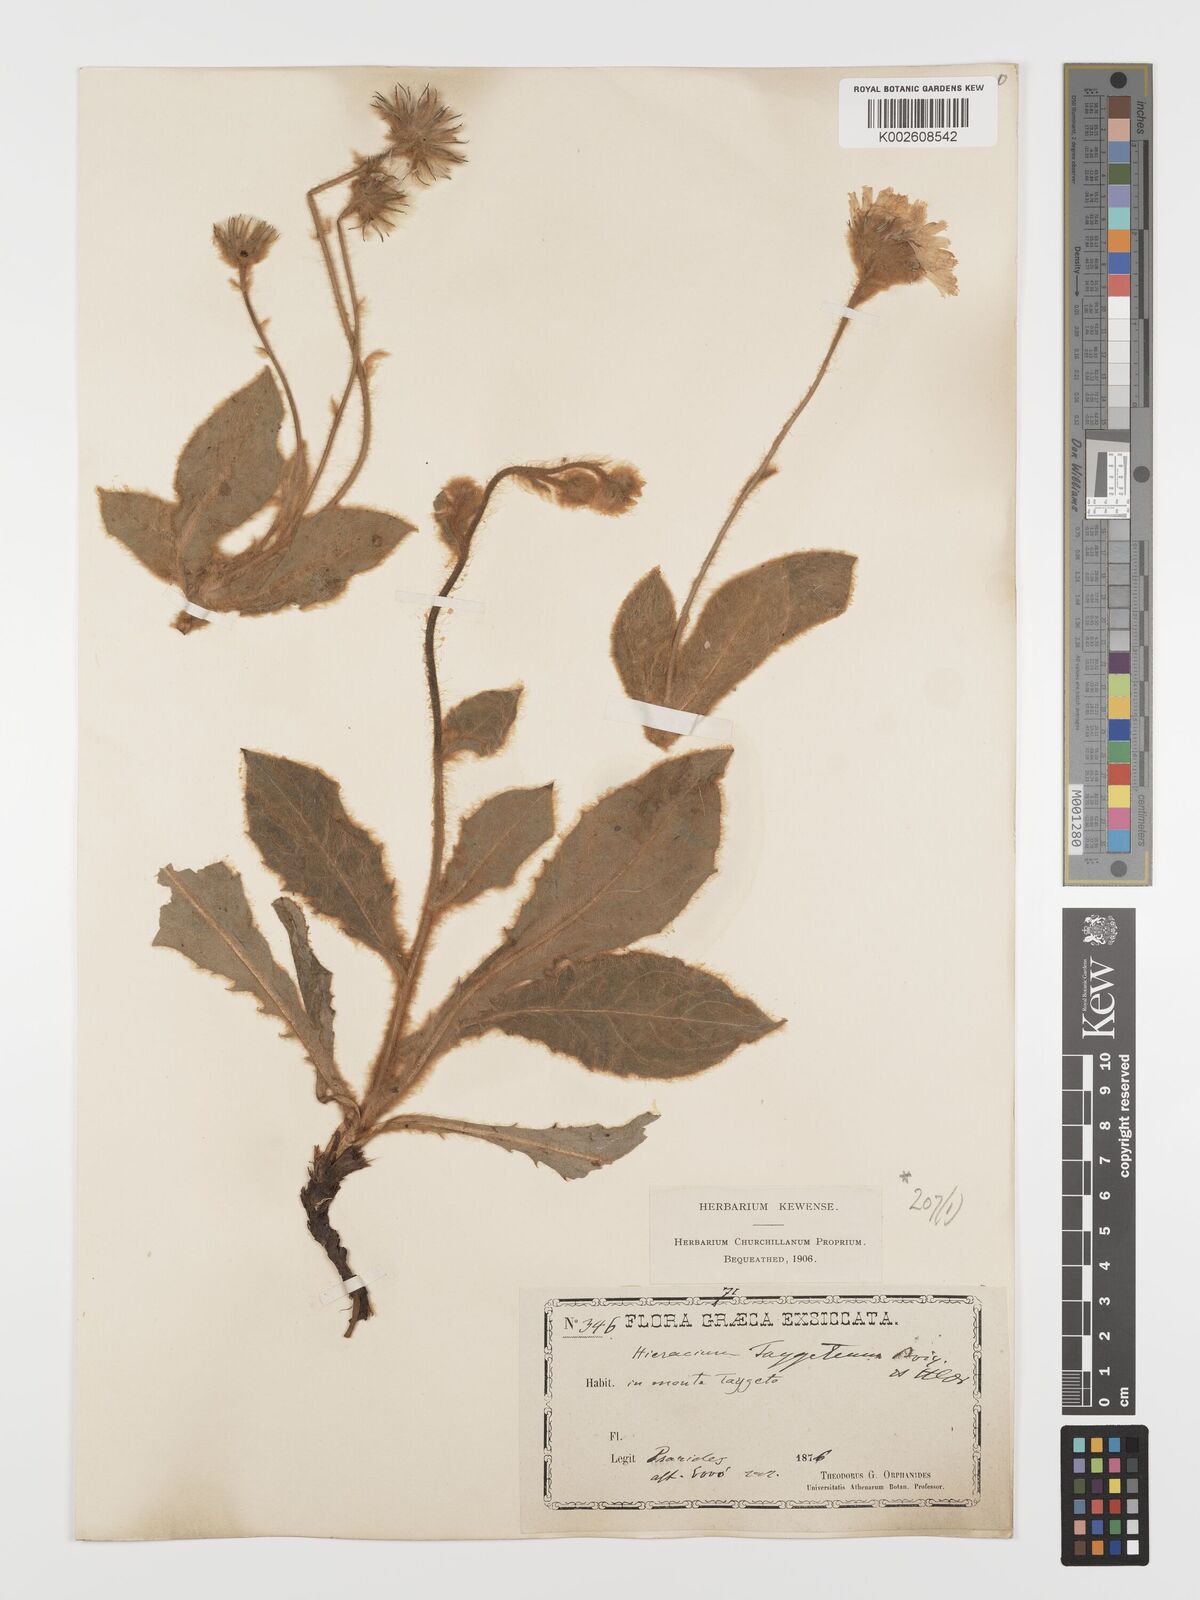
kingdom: Plantae
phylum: Tracheophyta
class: Magnoliopsida
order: Asterales
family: Asteraceae
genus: Hieracium
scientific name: Hieracium pannosum
